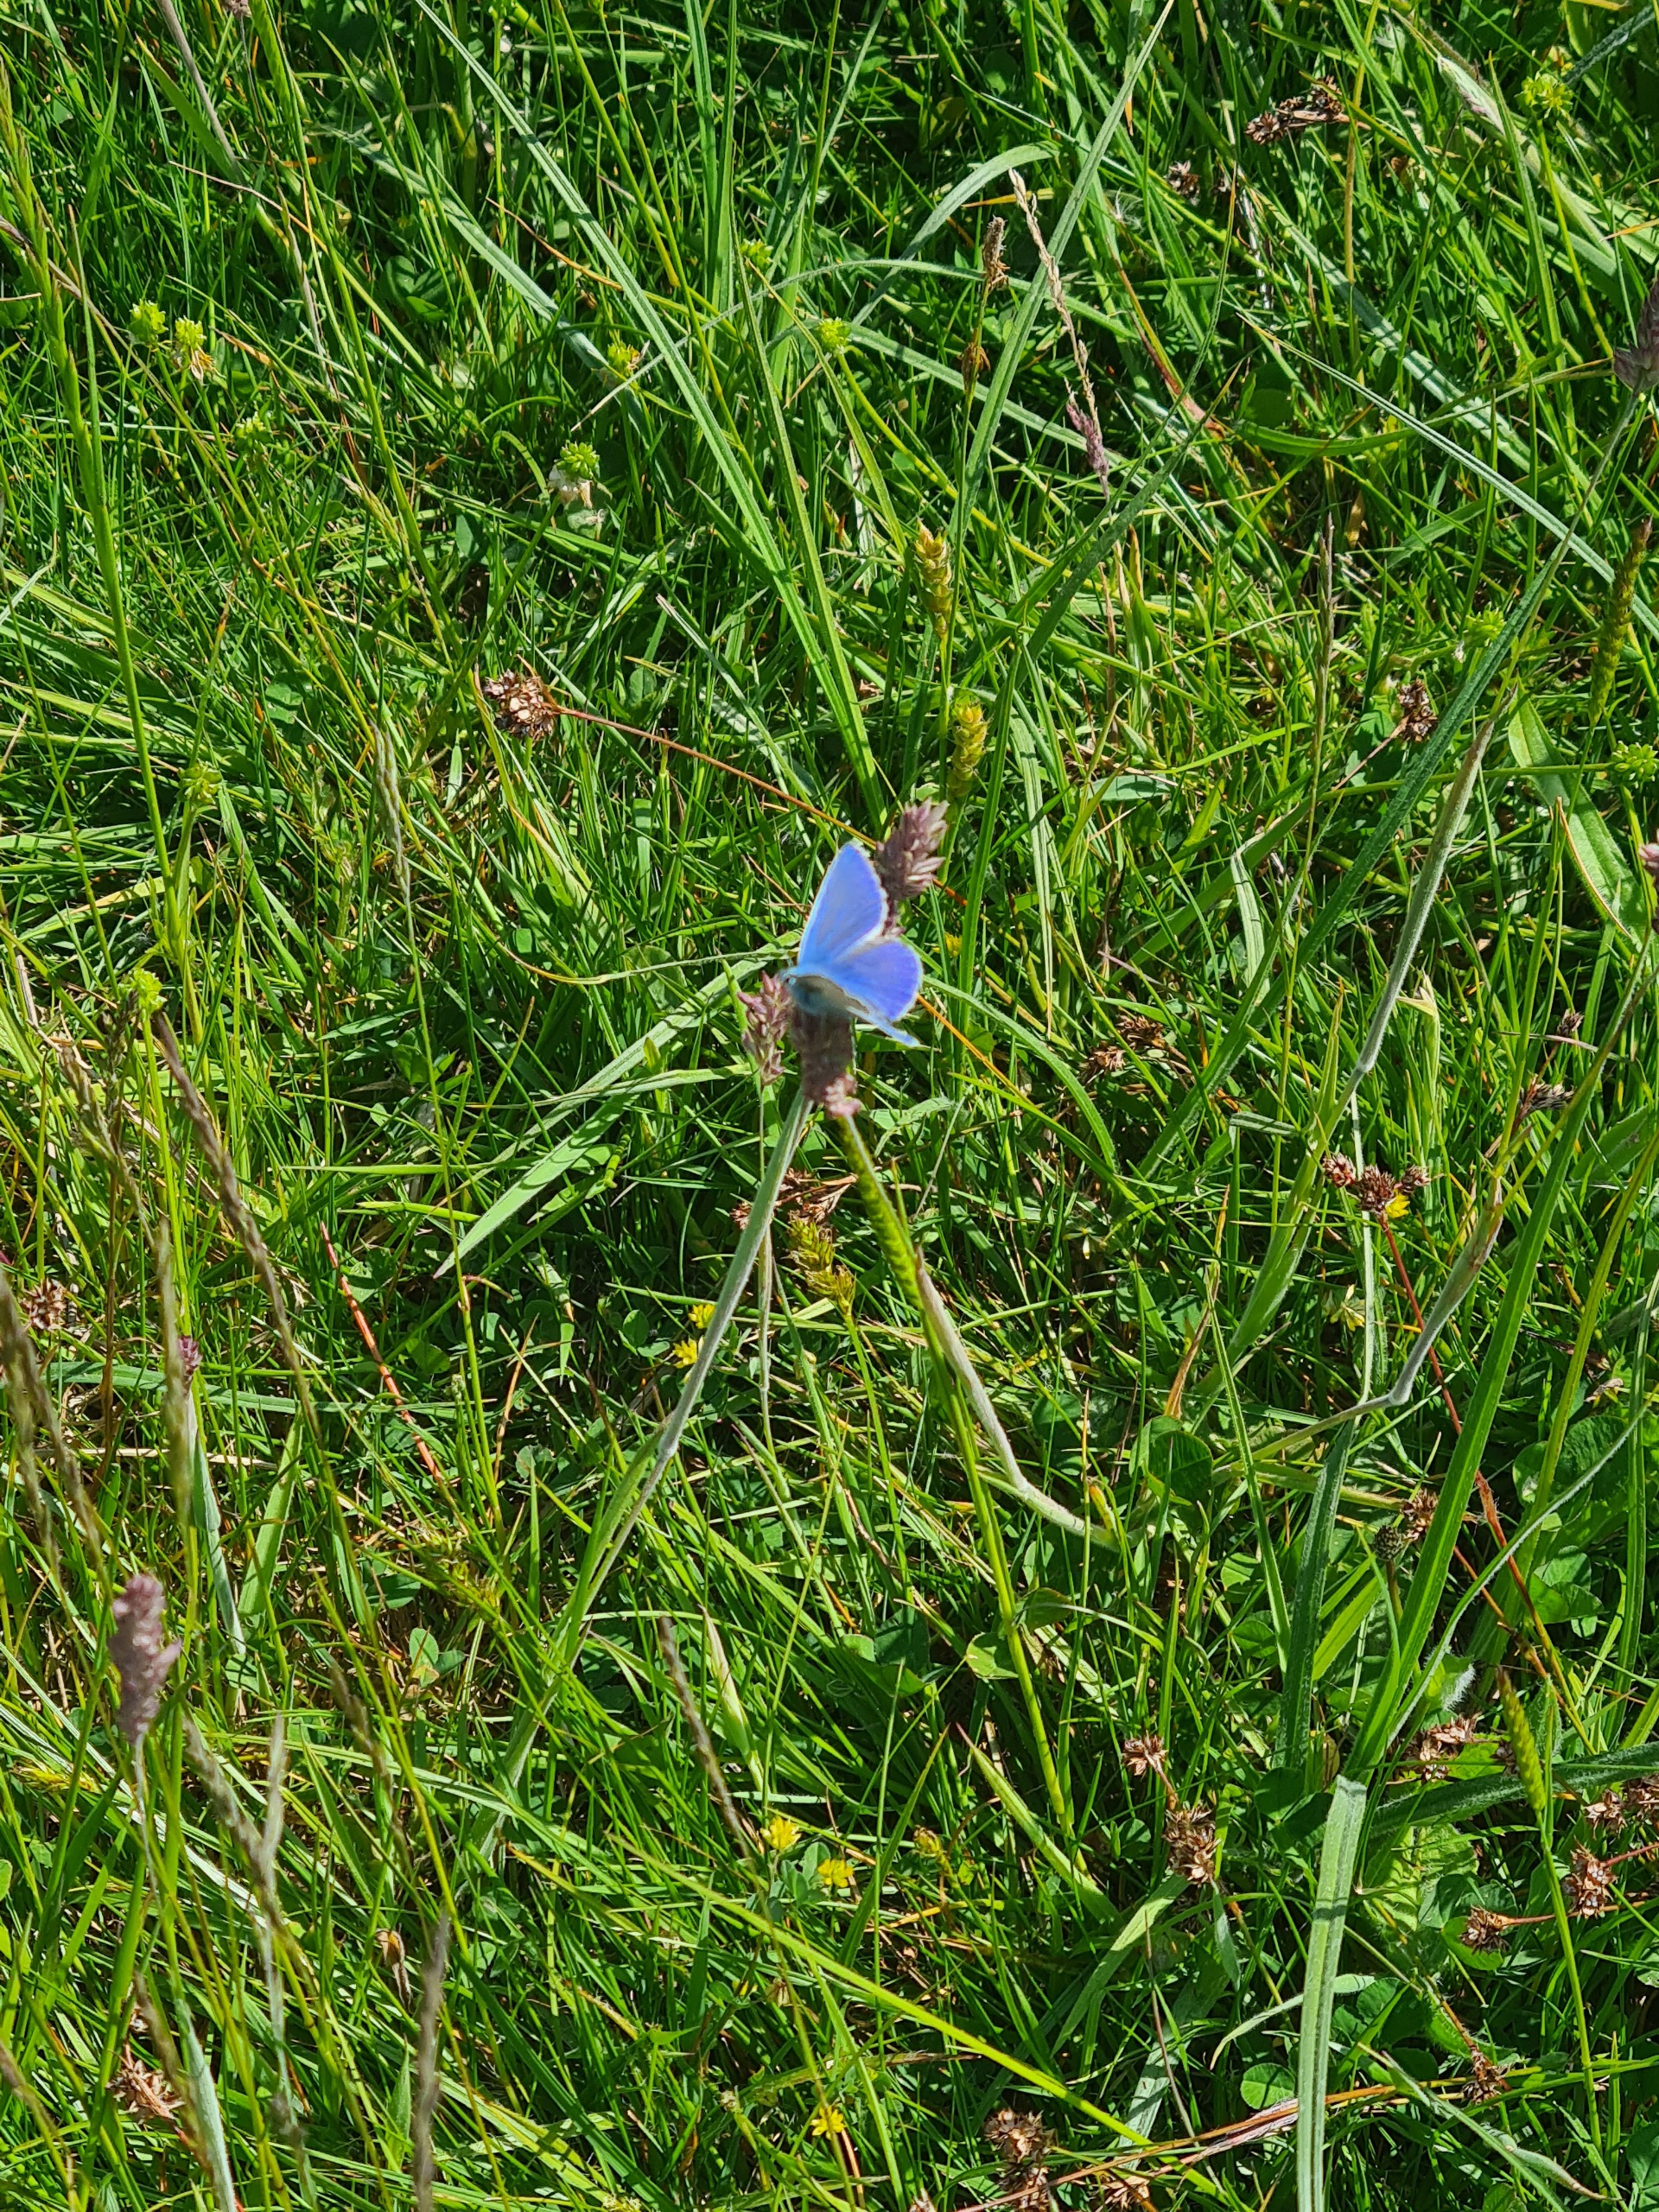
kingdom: Animalia
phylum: Arthropoda
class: Insecta
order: Lepidoptera
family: Lycaenidae
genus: Polyommatus
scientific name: Polyommatus icarus
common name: Almindelig blåfugl
